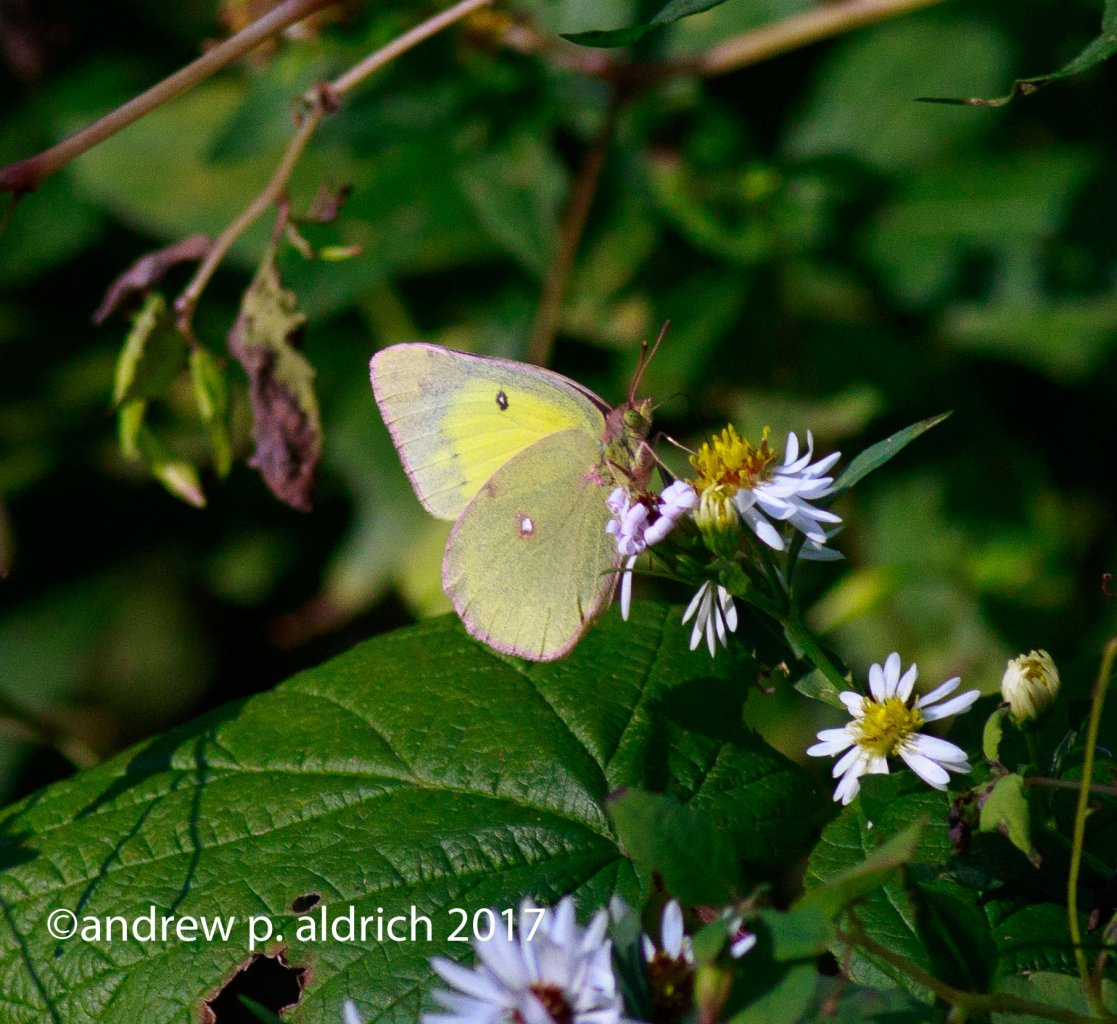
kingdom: Animalia
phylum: Arthropoda
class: Insecta
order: Lepidoptera
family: Pieridae
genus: Colias
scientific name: Colias interior
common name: Pink-edged Sulphur
